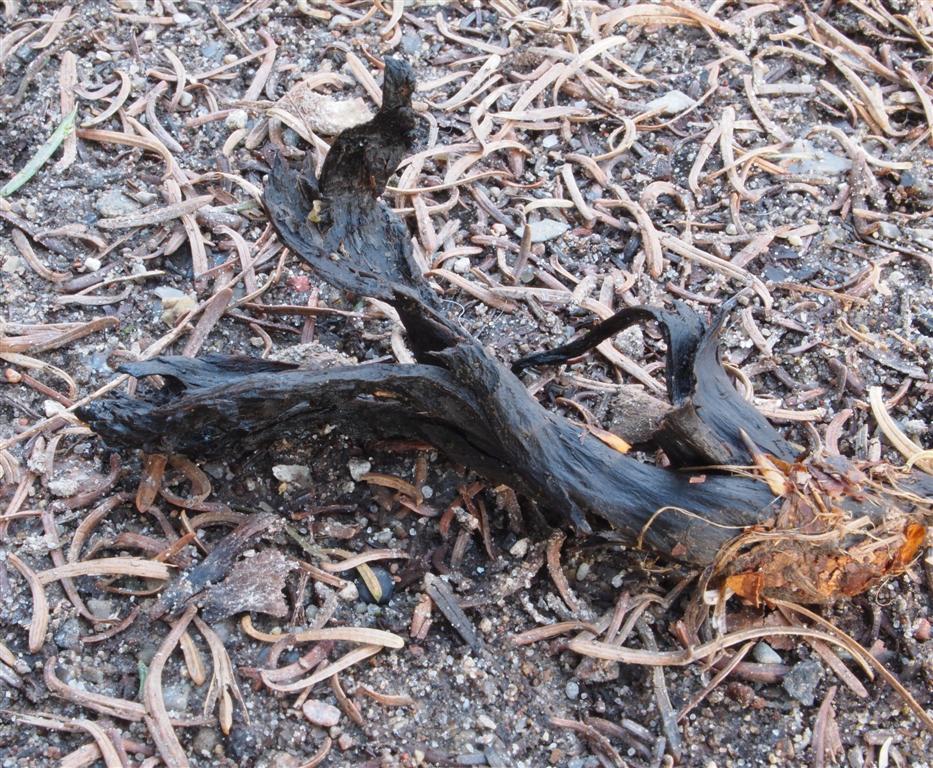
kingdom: Fungi
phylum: Basidiomycota
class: Agaricomycetes
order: Cantharellales
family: Hydnaceae
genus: Craterellus
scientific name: Craterellus cornucopioides
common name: trompetsvamp
